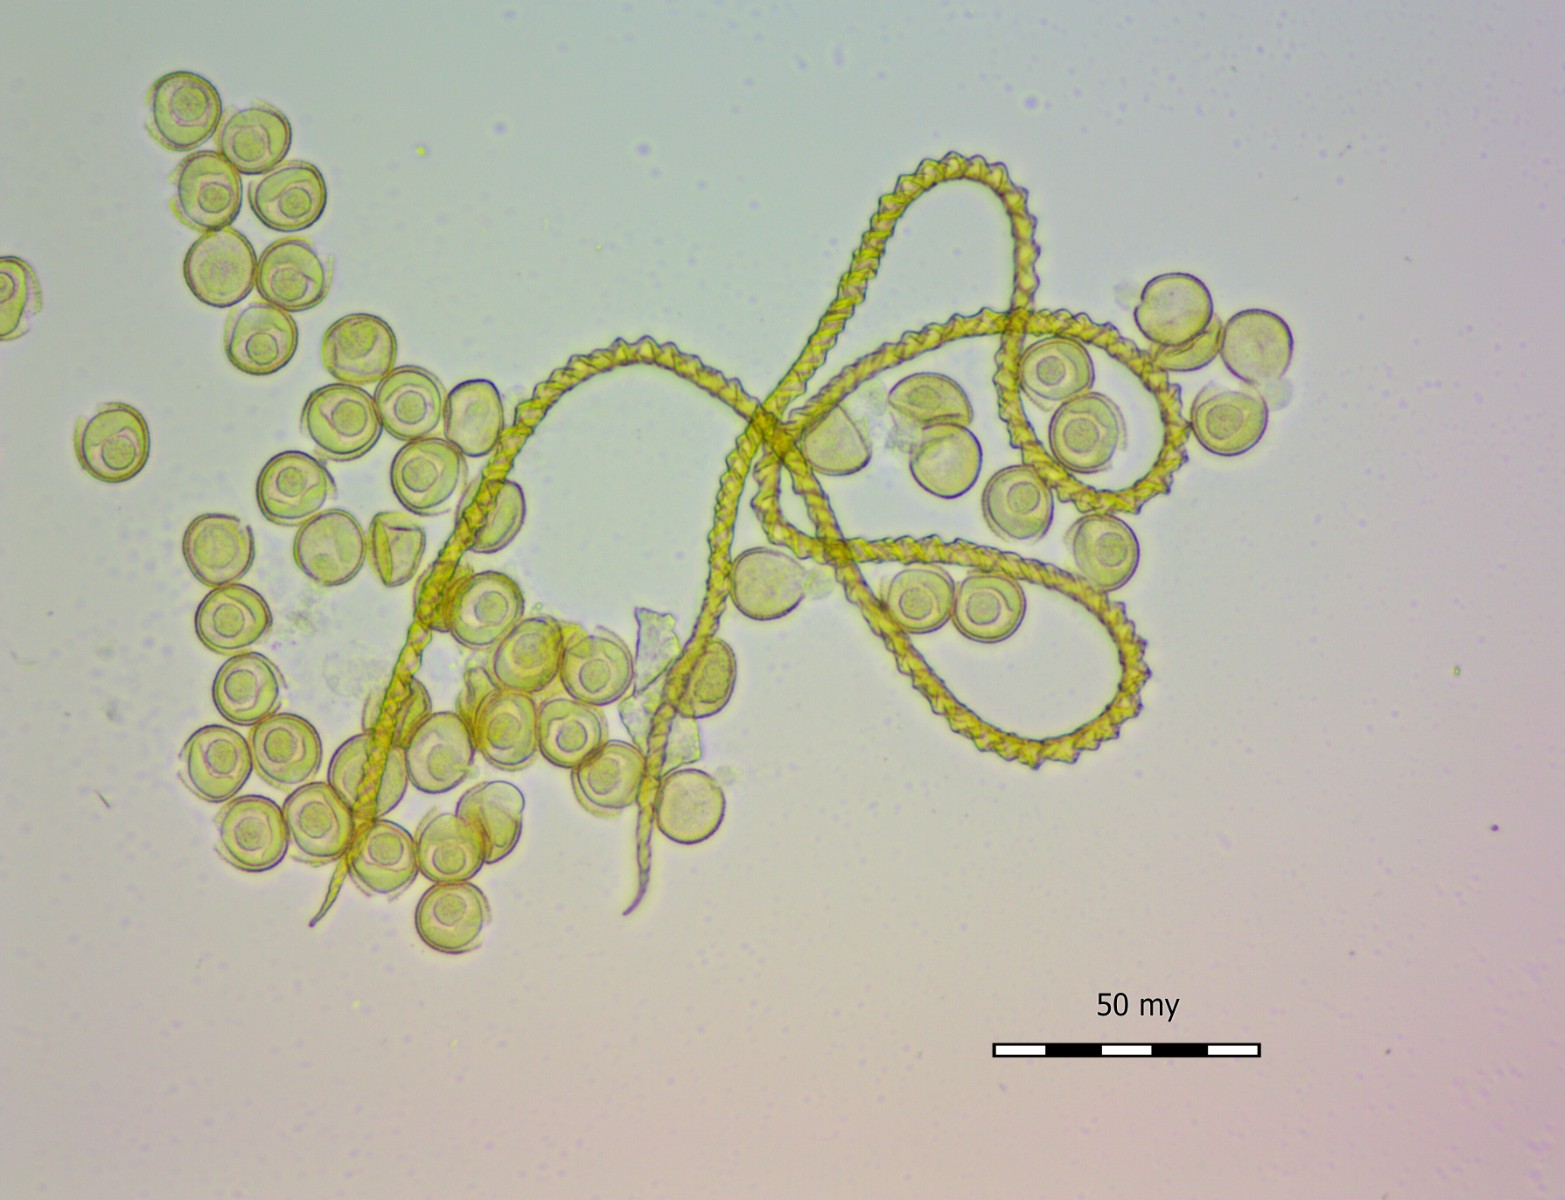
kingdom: Protozoa
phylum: Mycetozoa
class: Myxomycetes
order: Trichiales
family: Trichiaceae
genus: Trichia
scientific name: Trichia varia
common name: foranderlig hårbold
